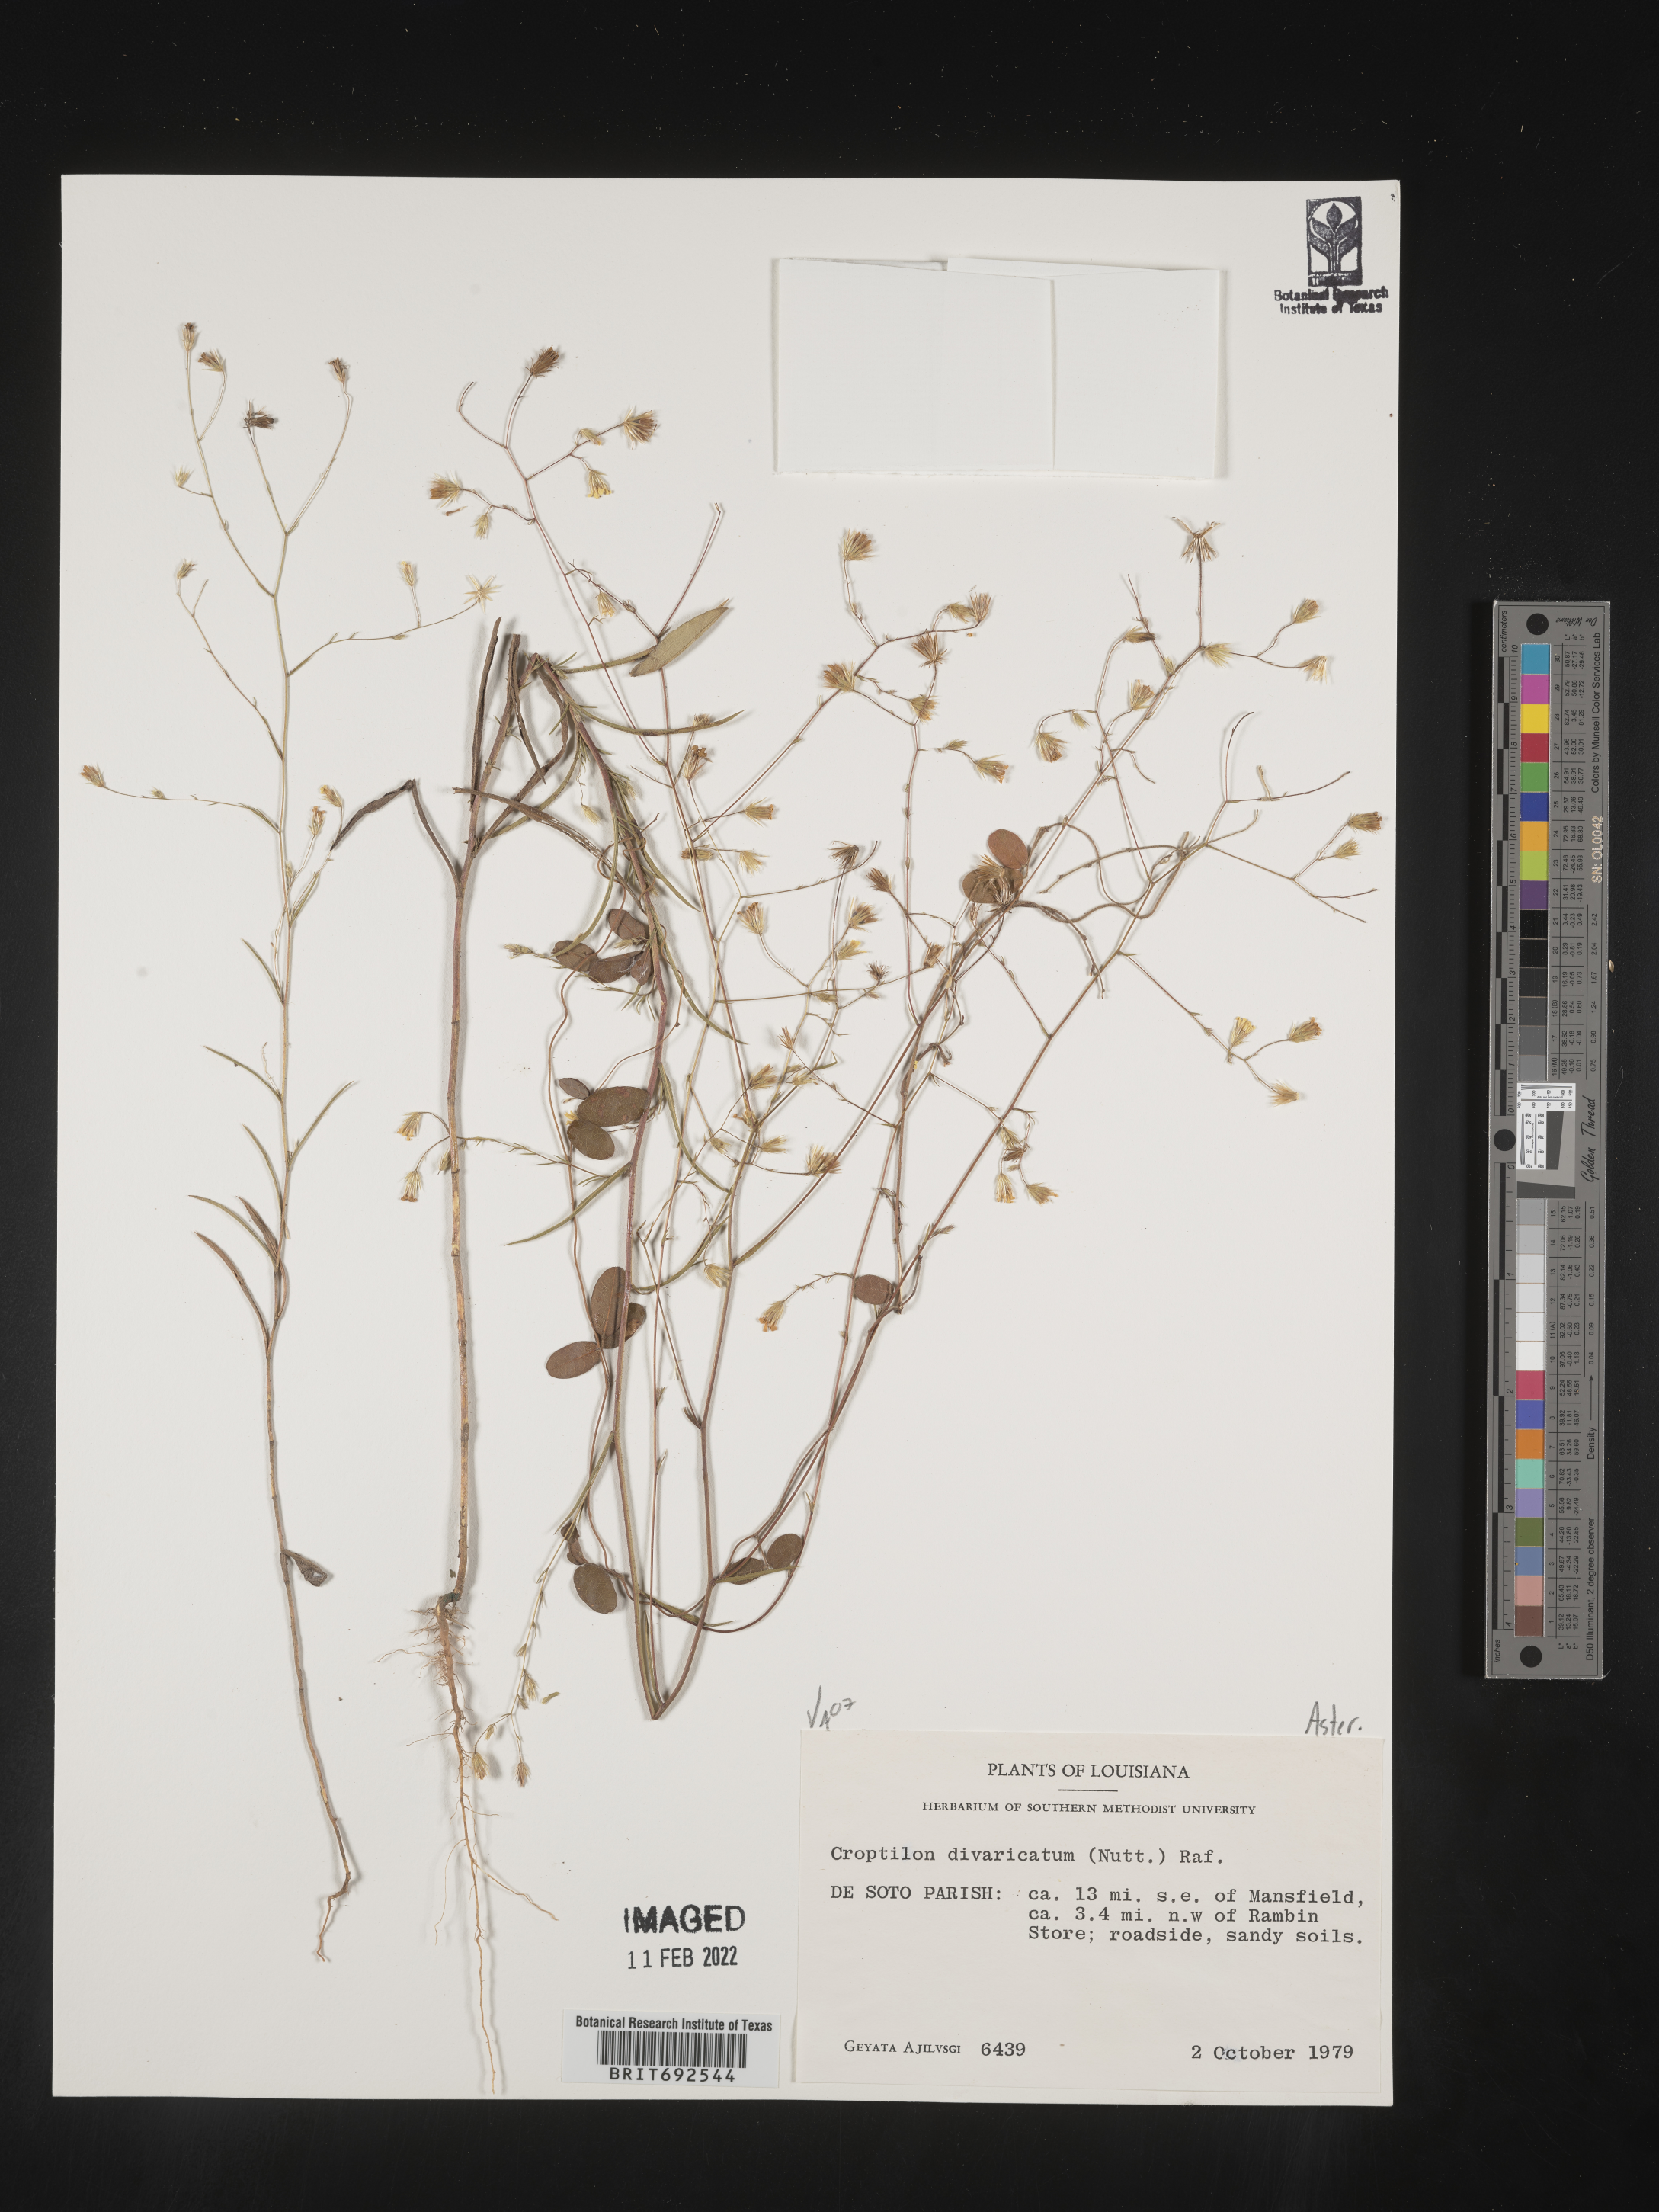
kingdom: Plantae
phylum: Tracheophyta
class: Magnoliopsida
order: Asterales
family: Asteraceae
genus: Croptilon
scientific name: Croptilon divaricatum
